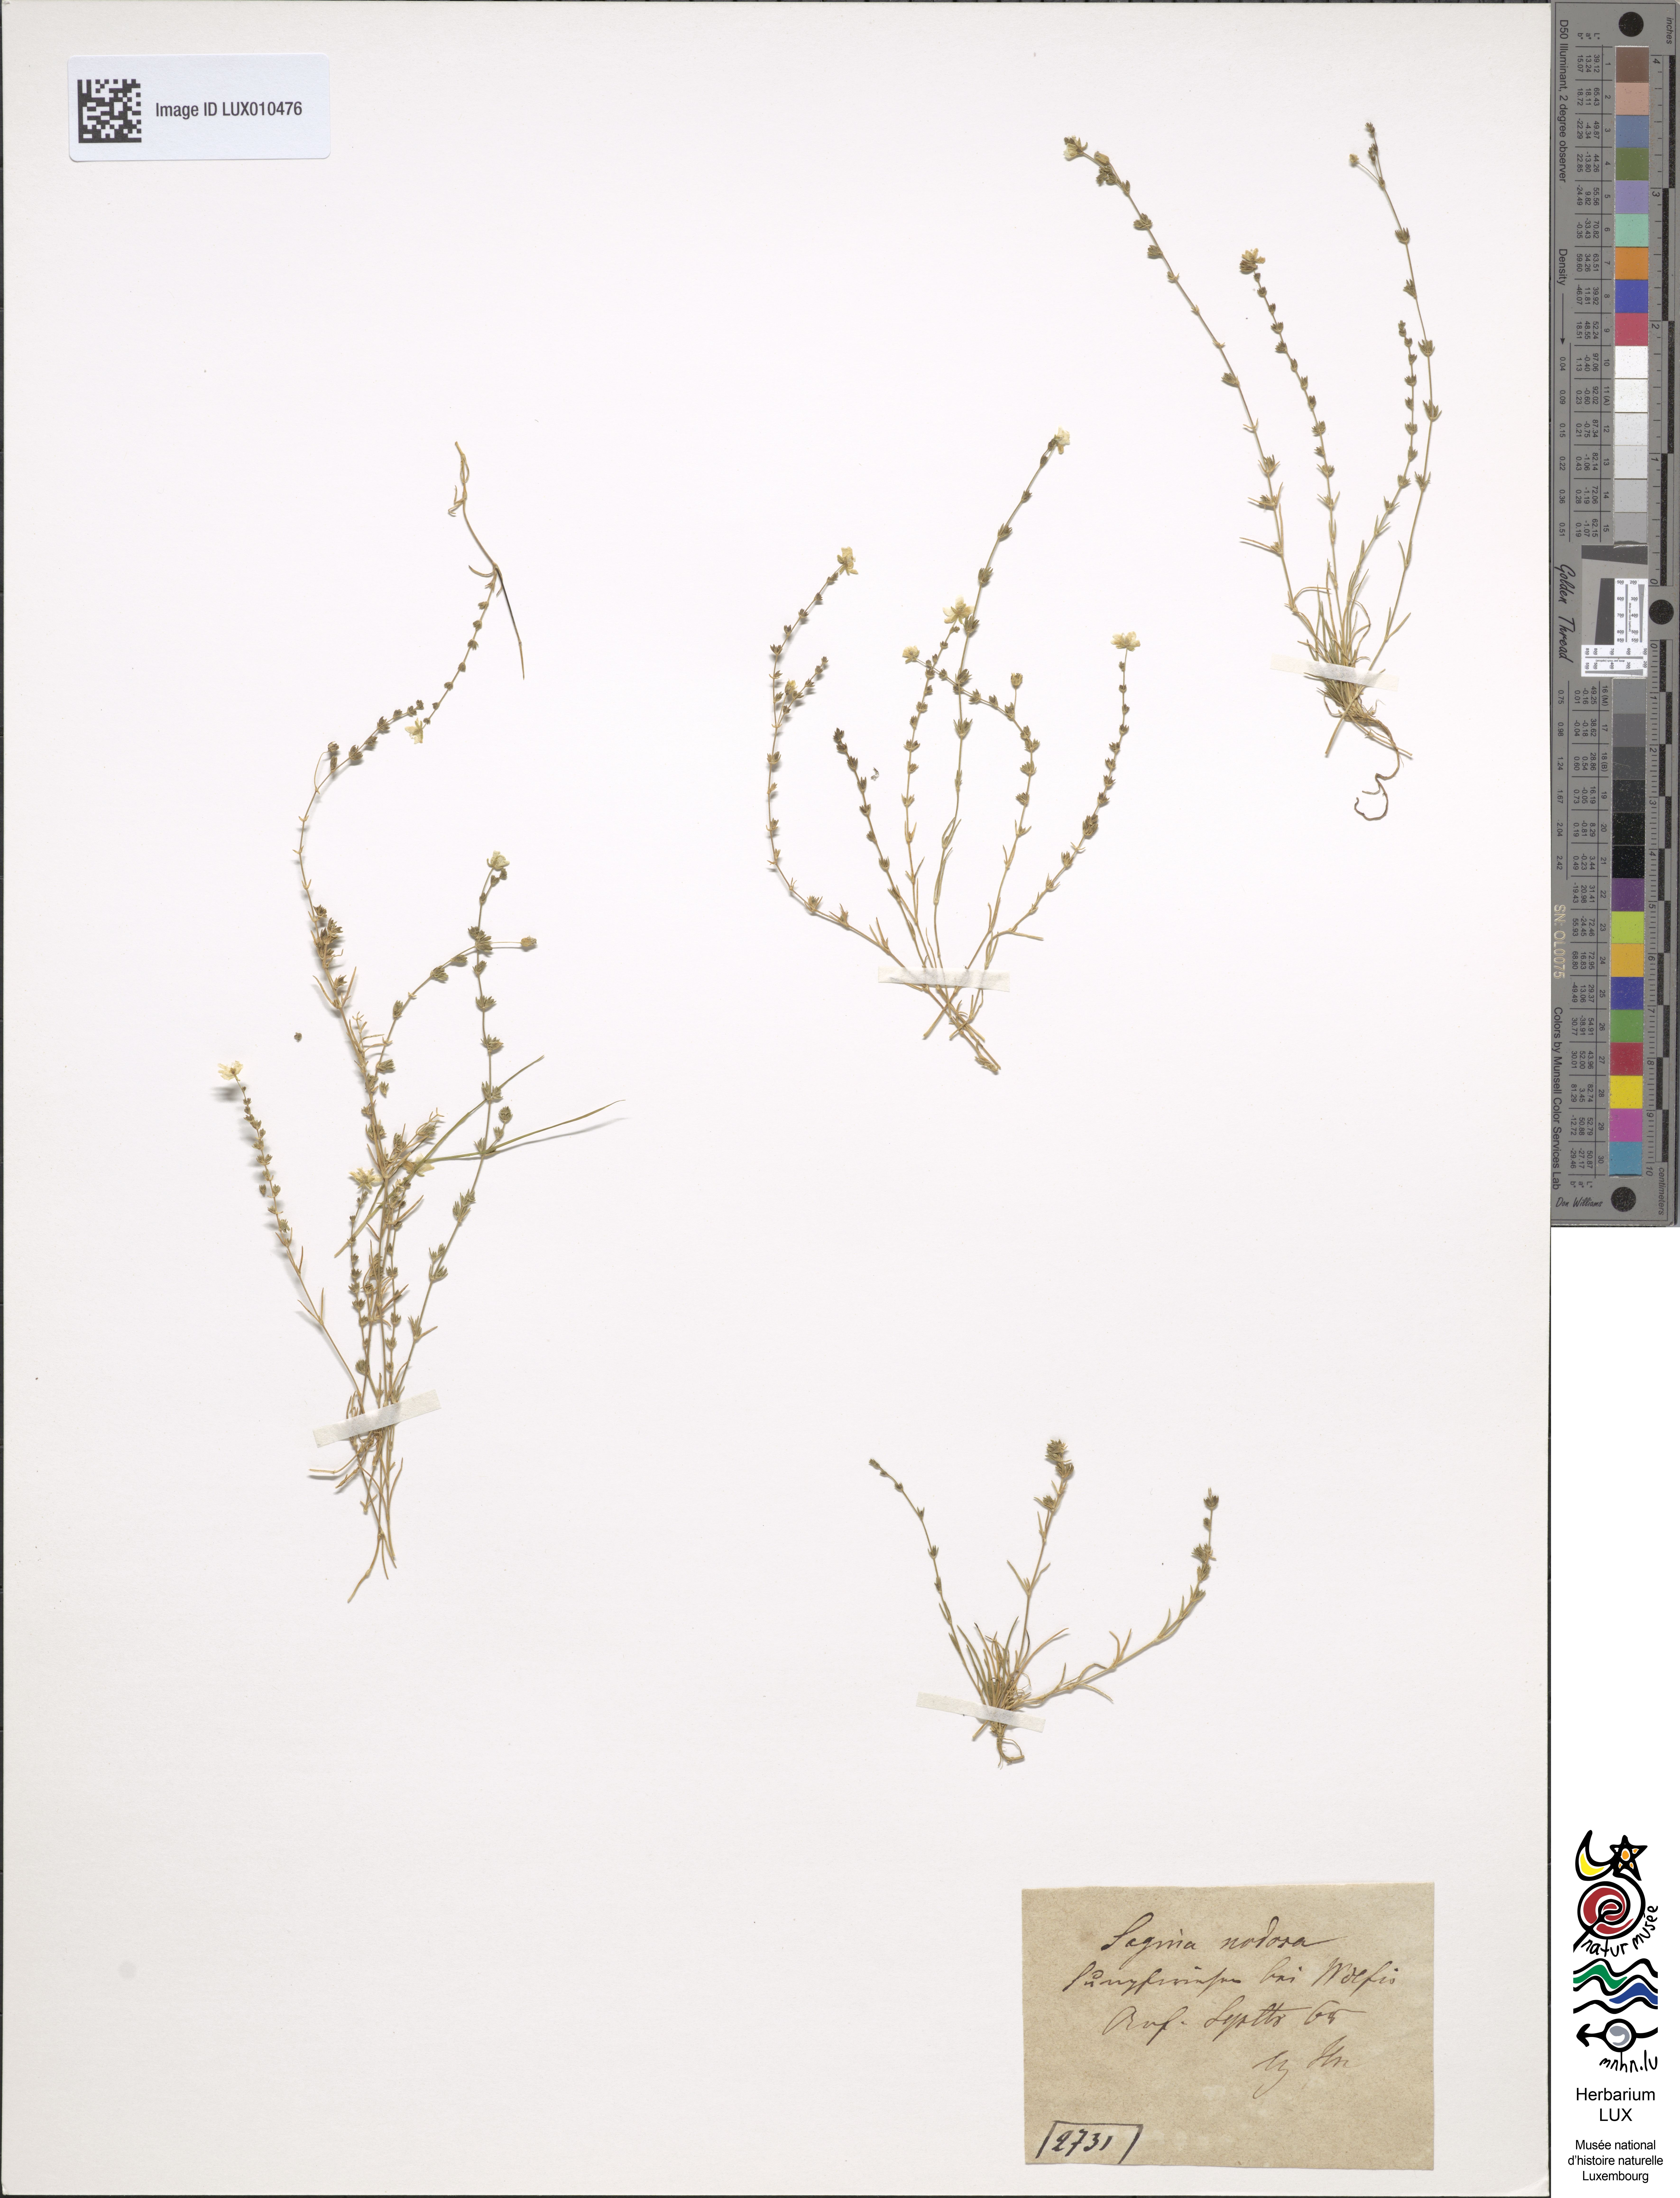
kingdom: Plantae
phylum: Tracheophyta
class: Magnoliopsida
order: Caryophyllales
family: Caryophyllaceae
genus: Sagina
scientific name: Sagina nodosa
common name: Knotted pearlwort
